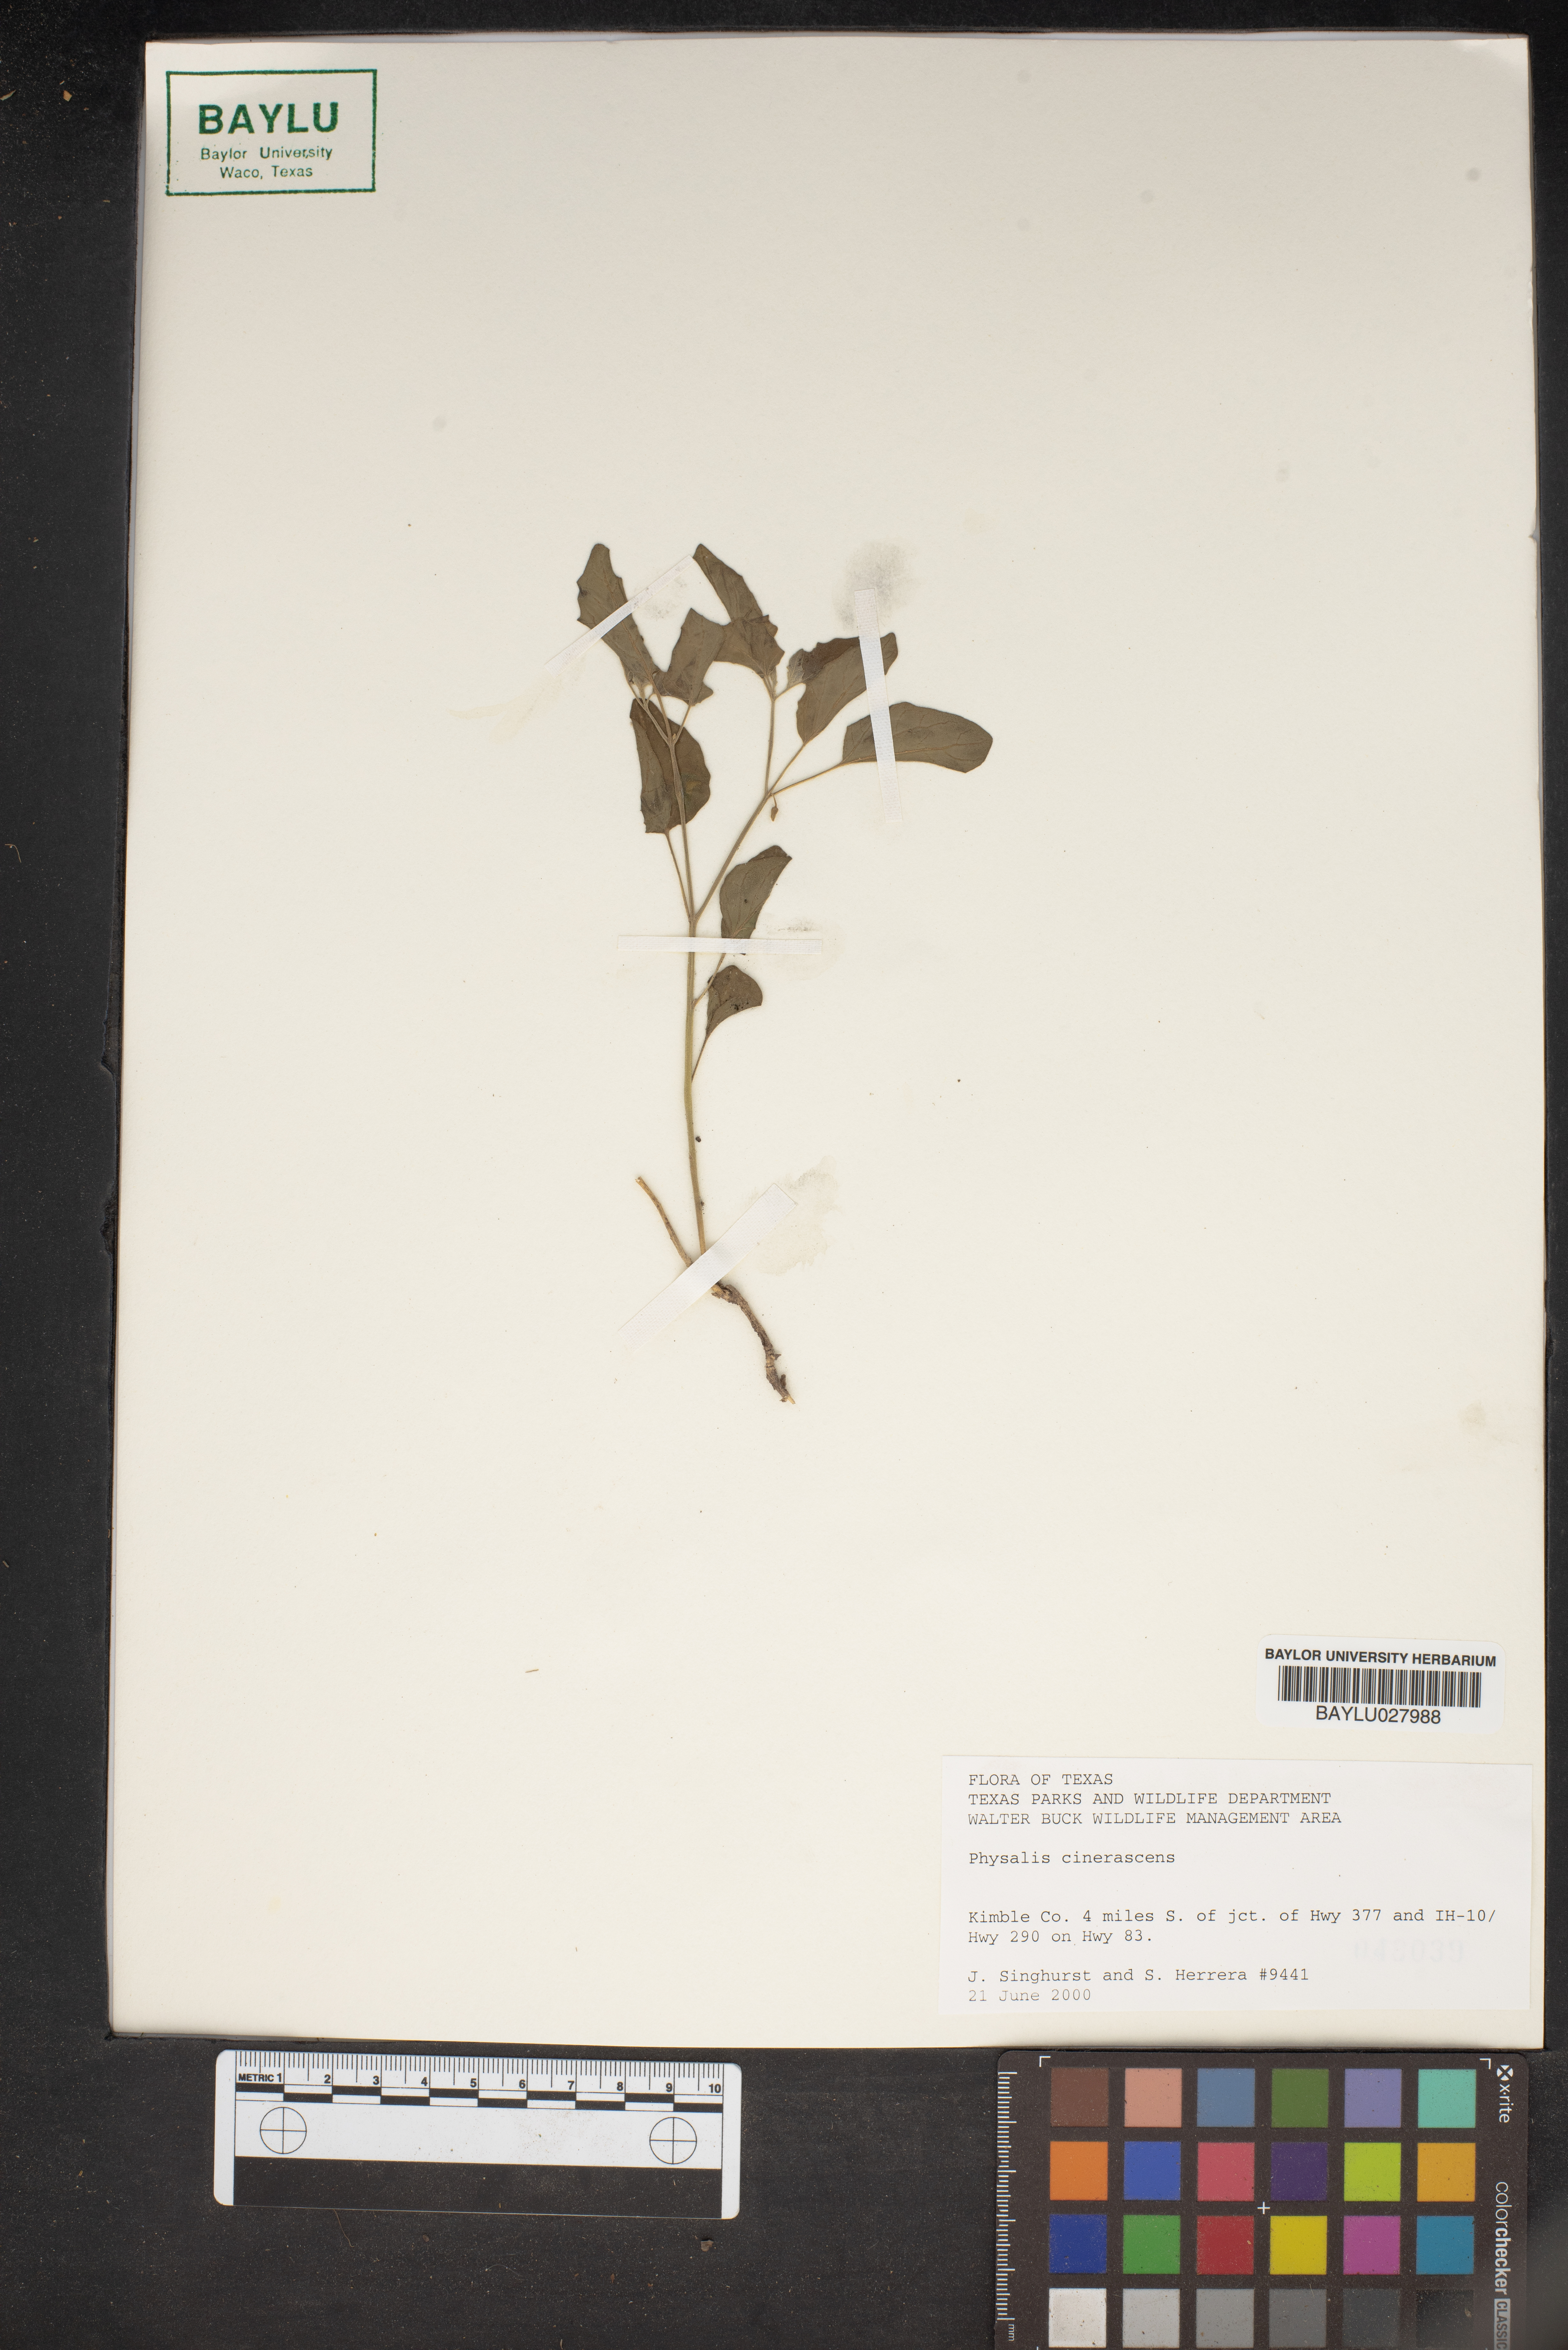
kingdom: Plantae
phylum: Tracheophyta
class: Magnoliopsida
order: Solanales
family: Solanaceae
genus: Physalis
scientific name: Physalis cinerascens
